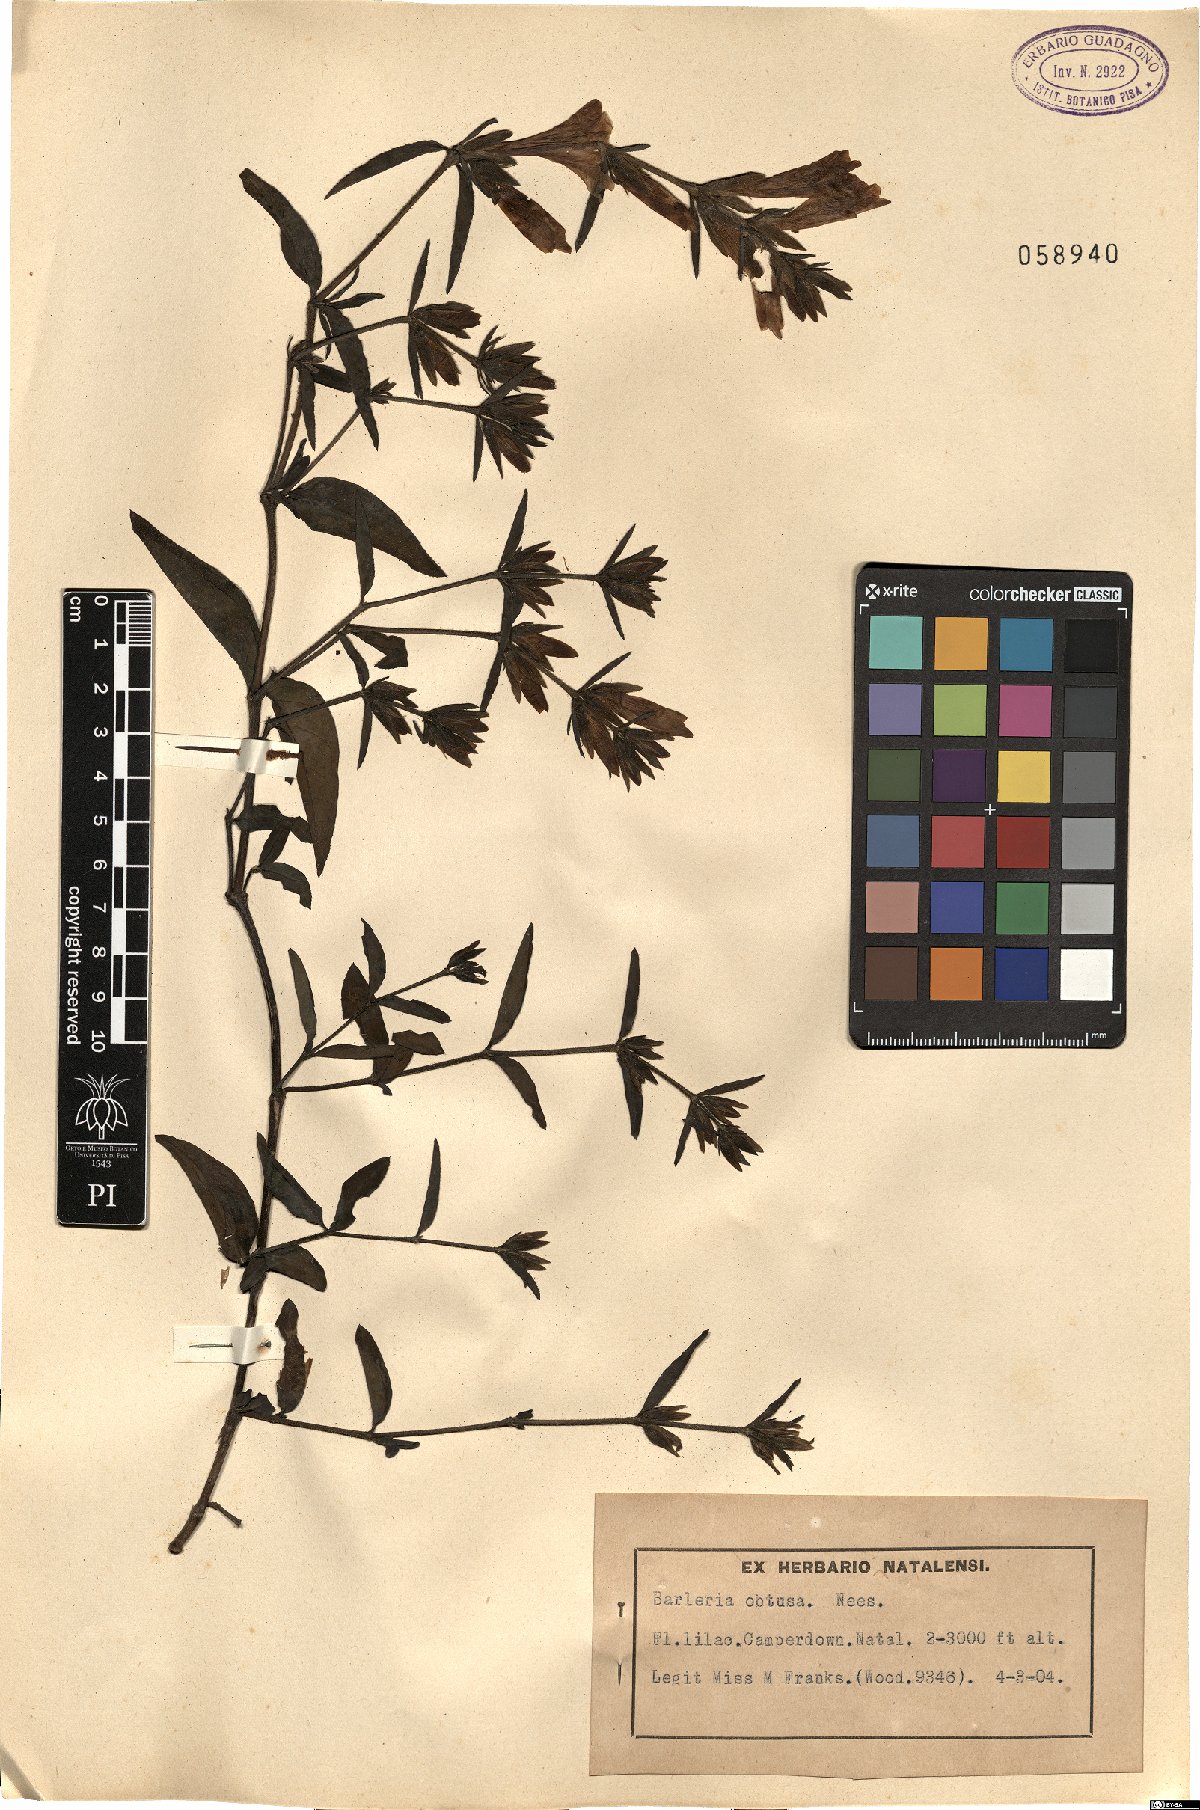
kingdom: Plantae
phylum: Tracheophyta
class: Magnoliopsida
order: Lamiales
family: Acanthaceae
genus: Barleria
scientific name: Barleria obtusa
